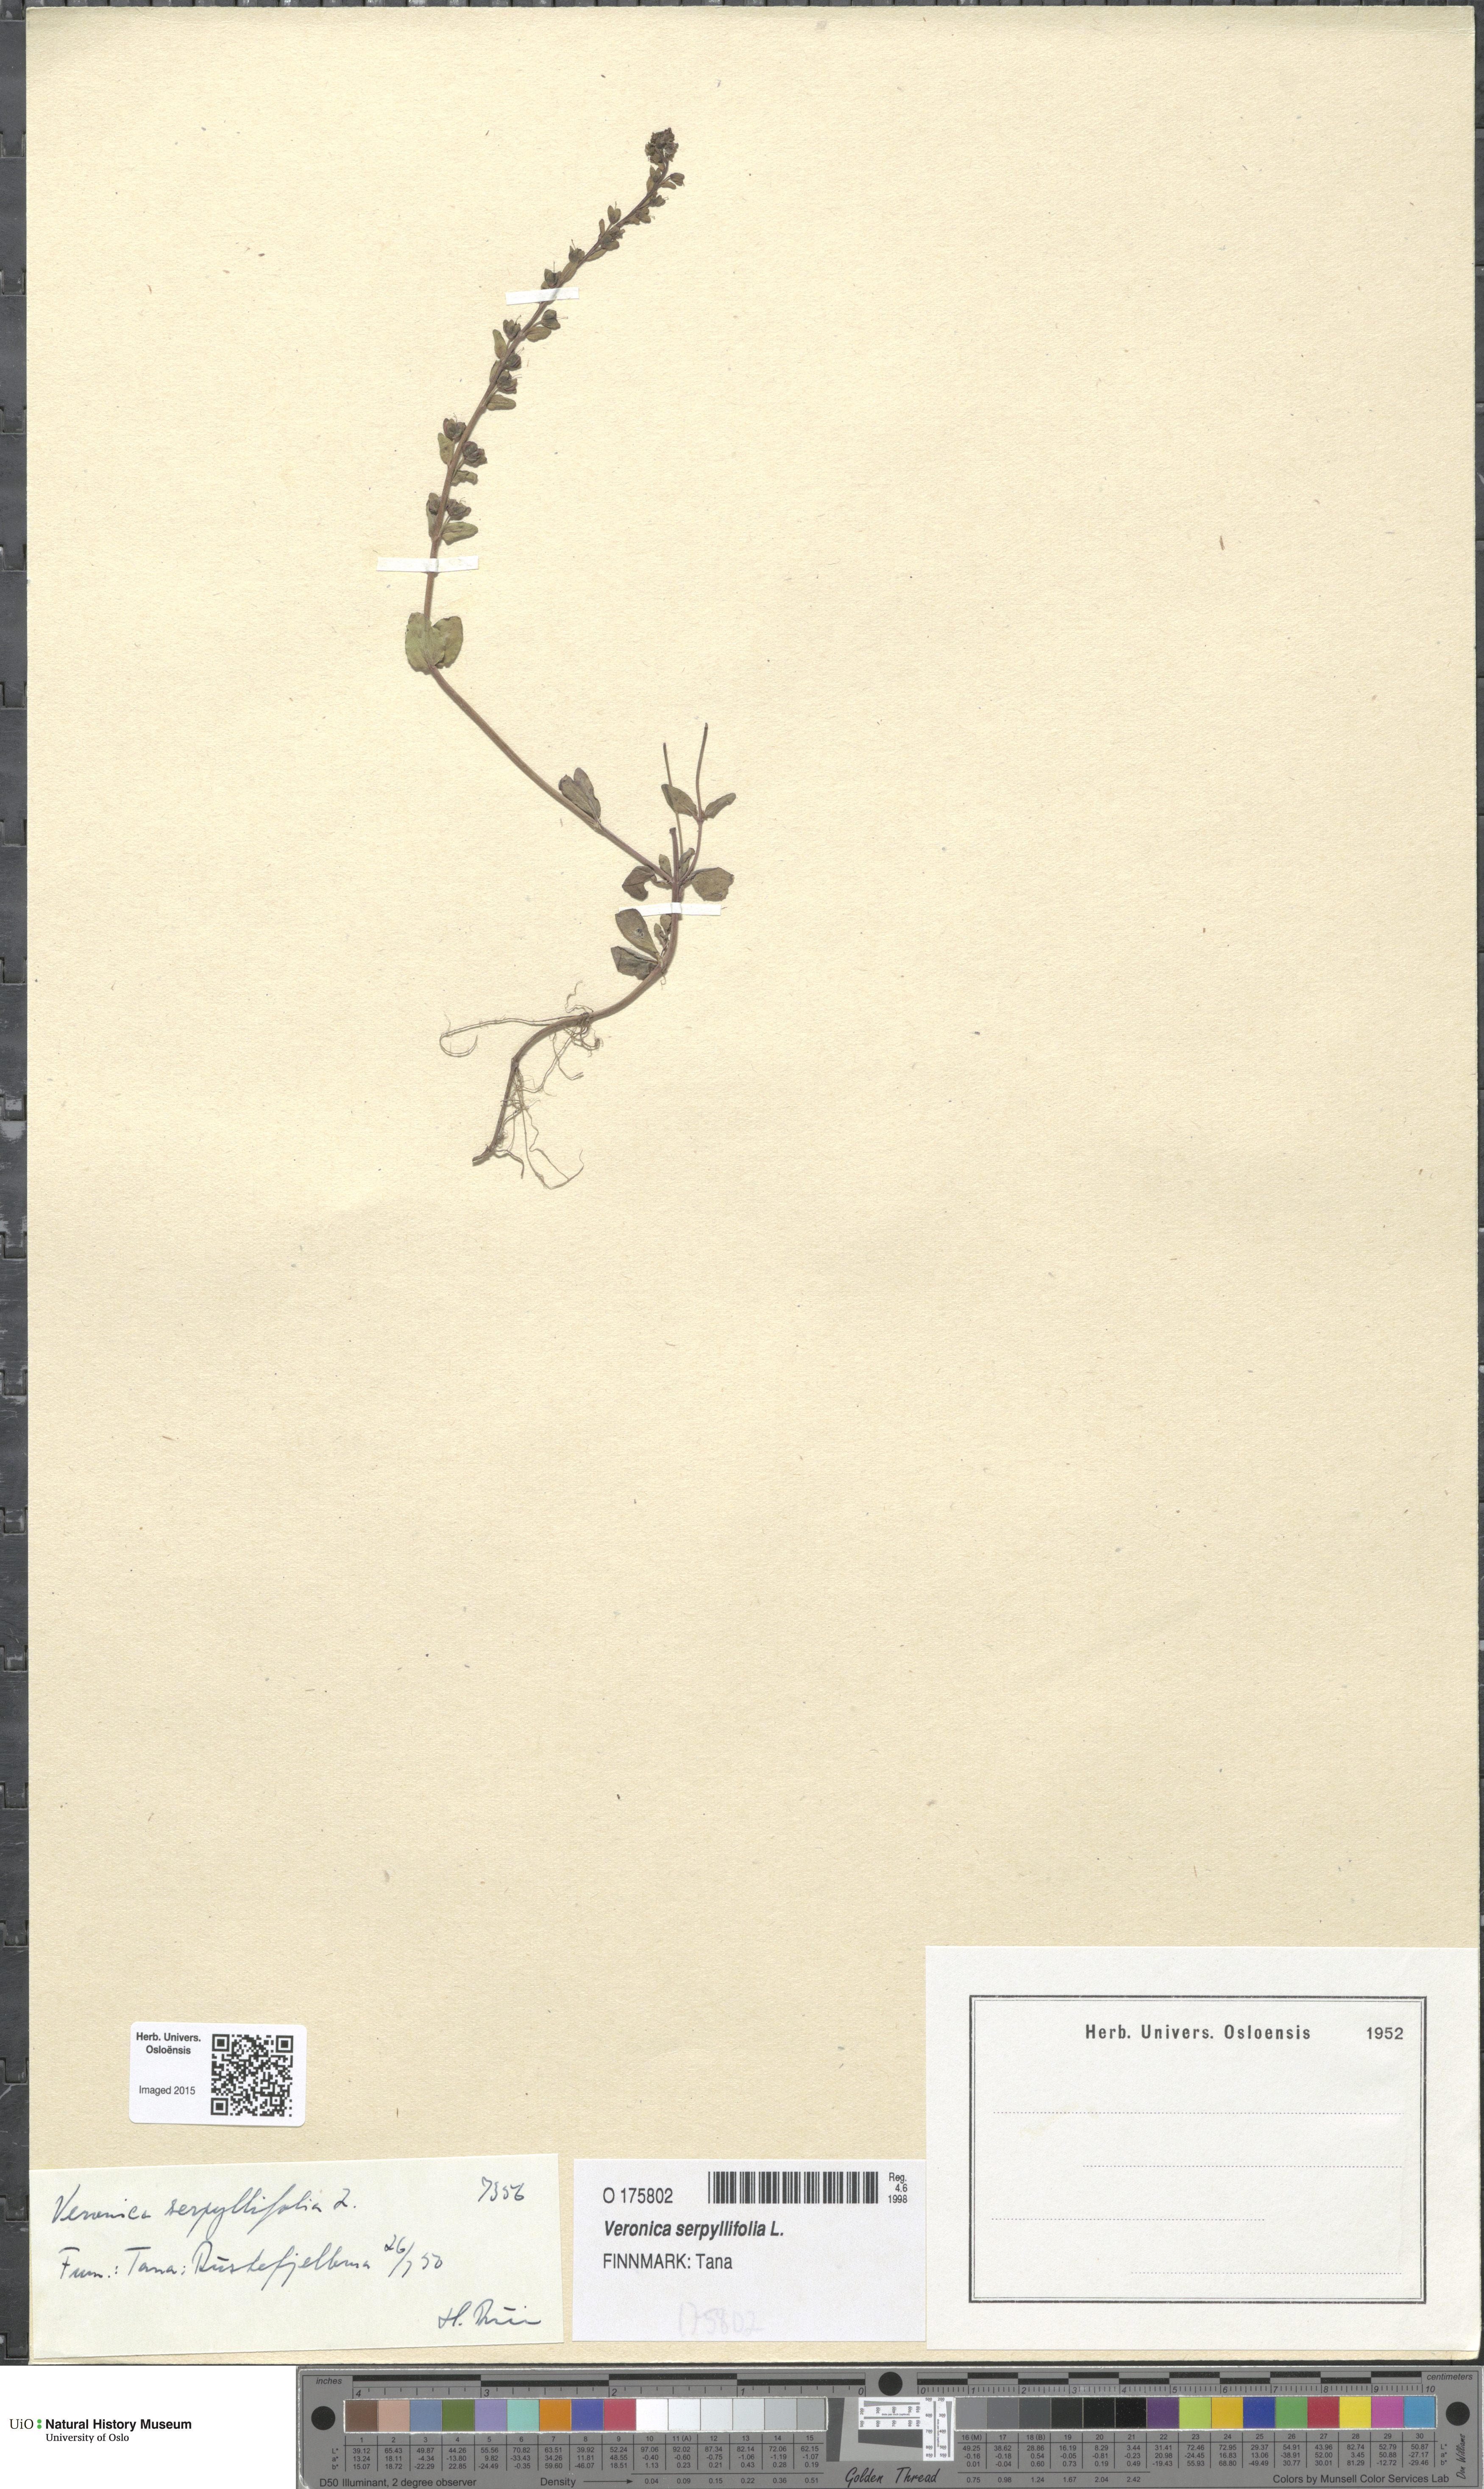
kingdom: Plantae
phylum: Tracheophyta
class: Magnoliopsida
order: Lamiales
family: Plantaginaceae
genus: Veronica
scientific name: Veronica serpyllifolia
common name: Thyme-leaved speedwell
